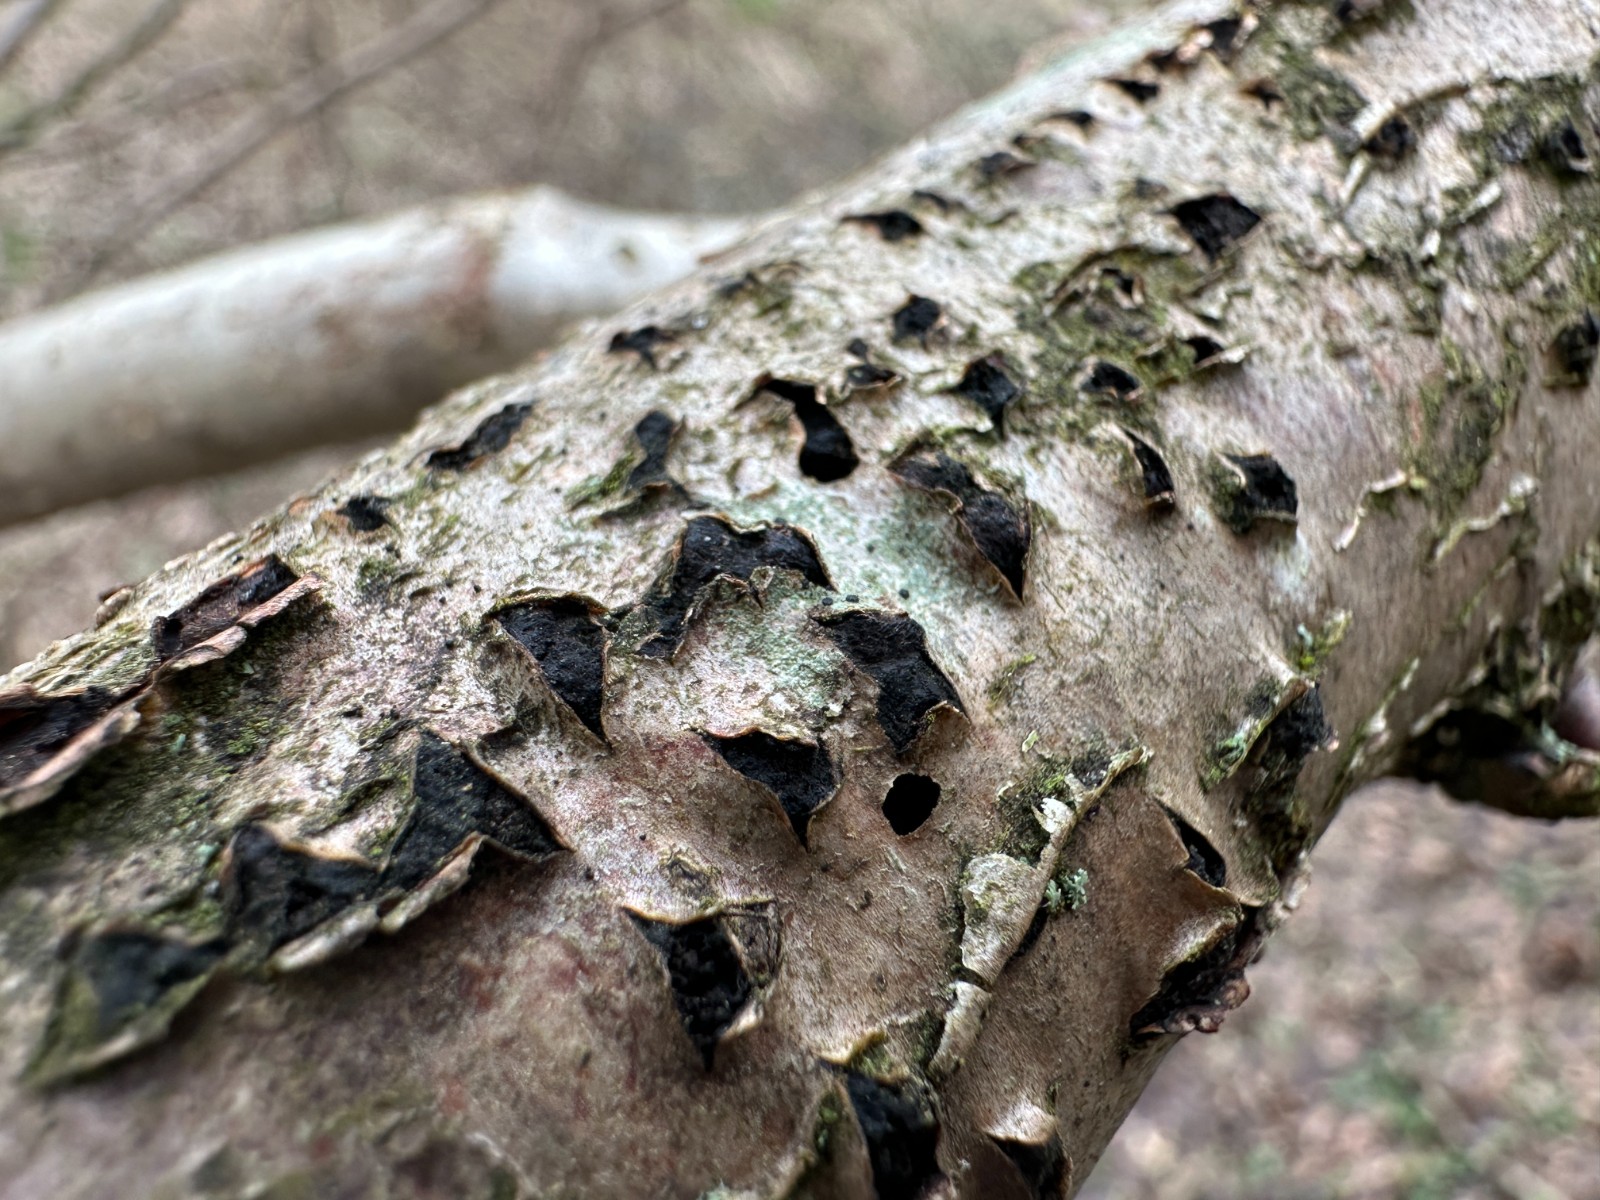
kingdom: Fungi
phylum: Ascomycota
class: Sordariomycetes
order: Xylariales
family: Diatrypaceae
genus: Diatrypella
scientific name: Diatrypella favacea
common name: klemt kulskorpe
